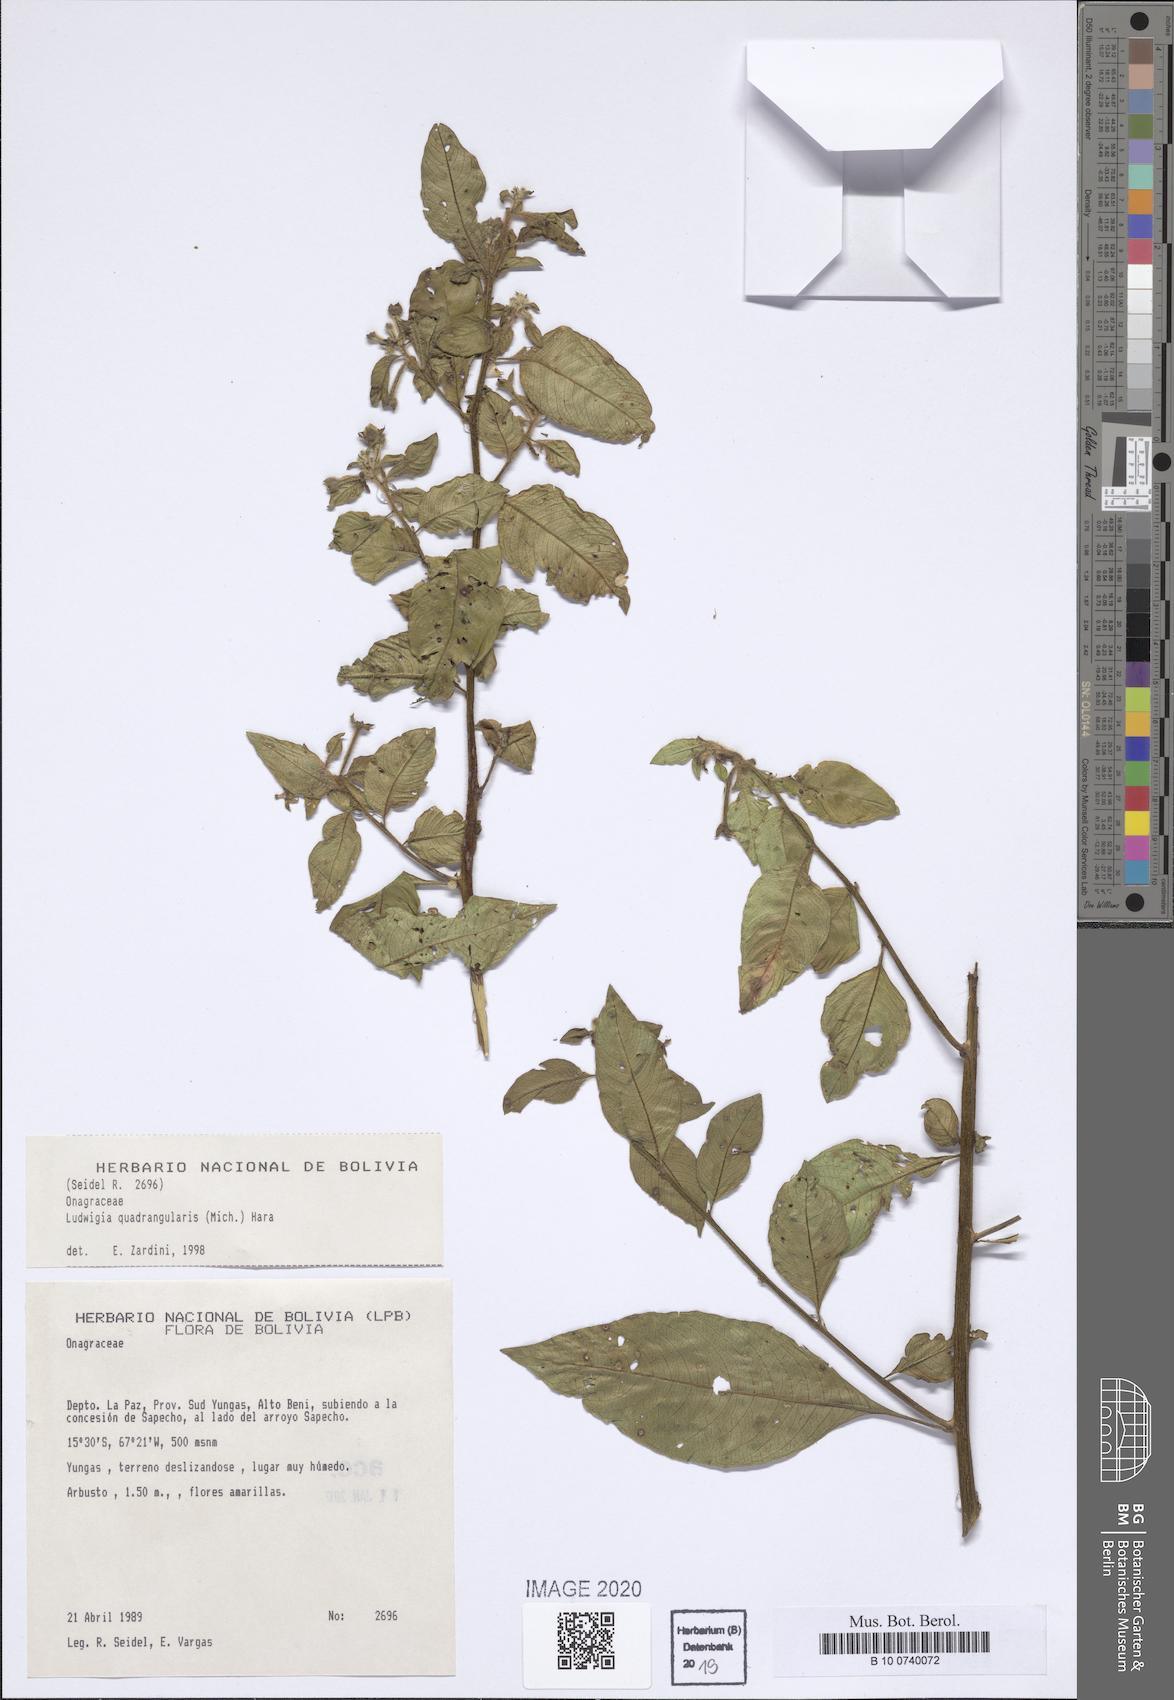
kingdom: Plantae
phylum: Tracheophyta
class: Magnoliopsida
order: Myrtales
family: Onagraceae
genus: Ludwigia
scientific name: Ludwigia quadrangularis
